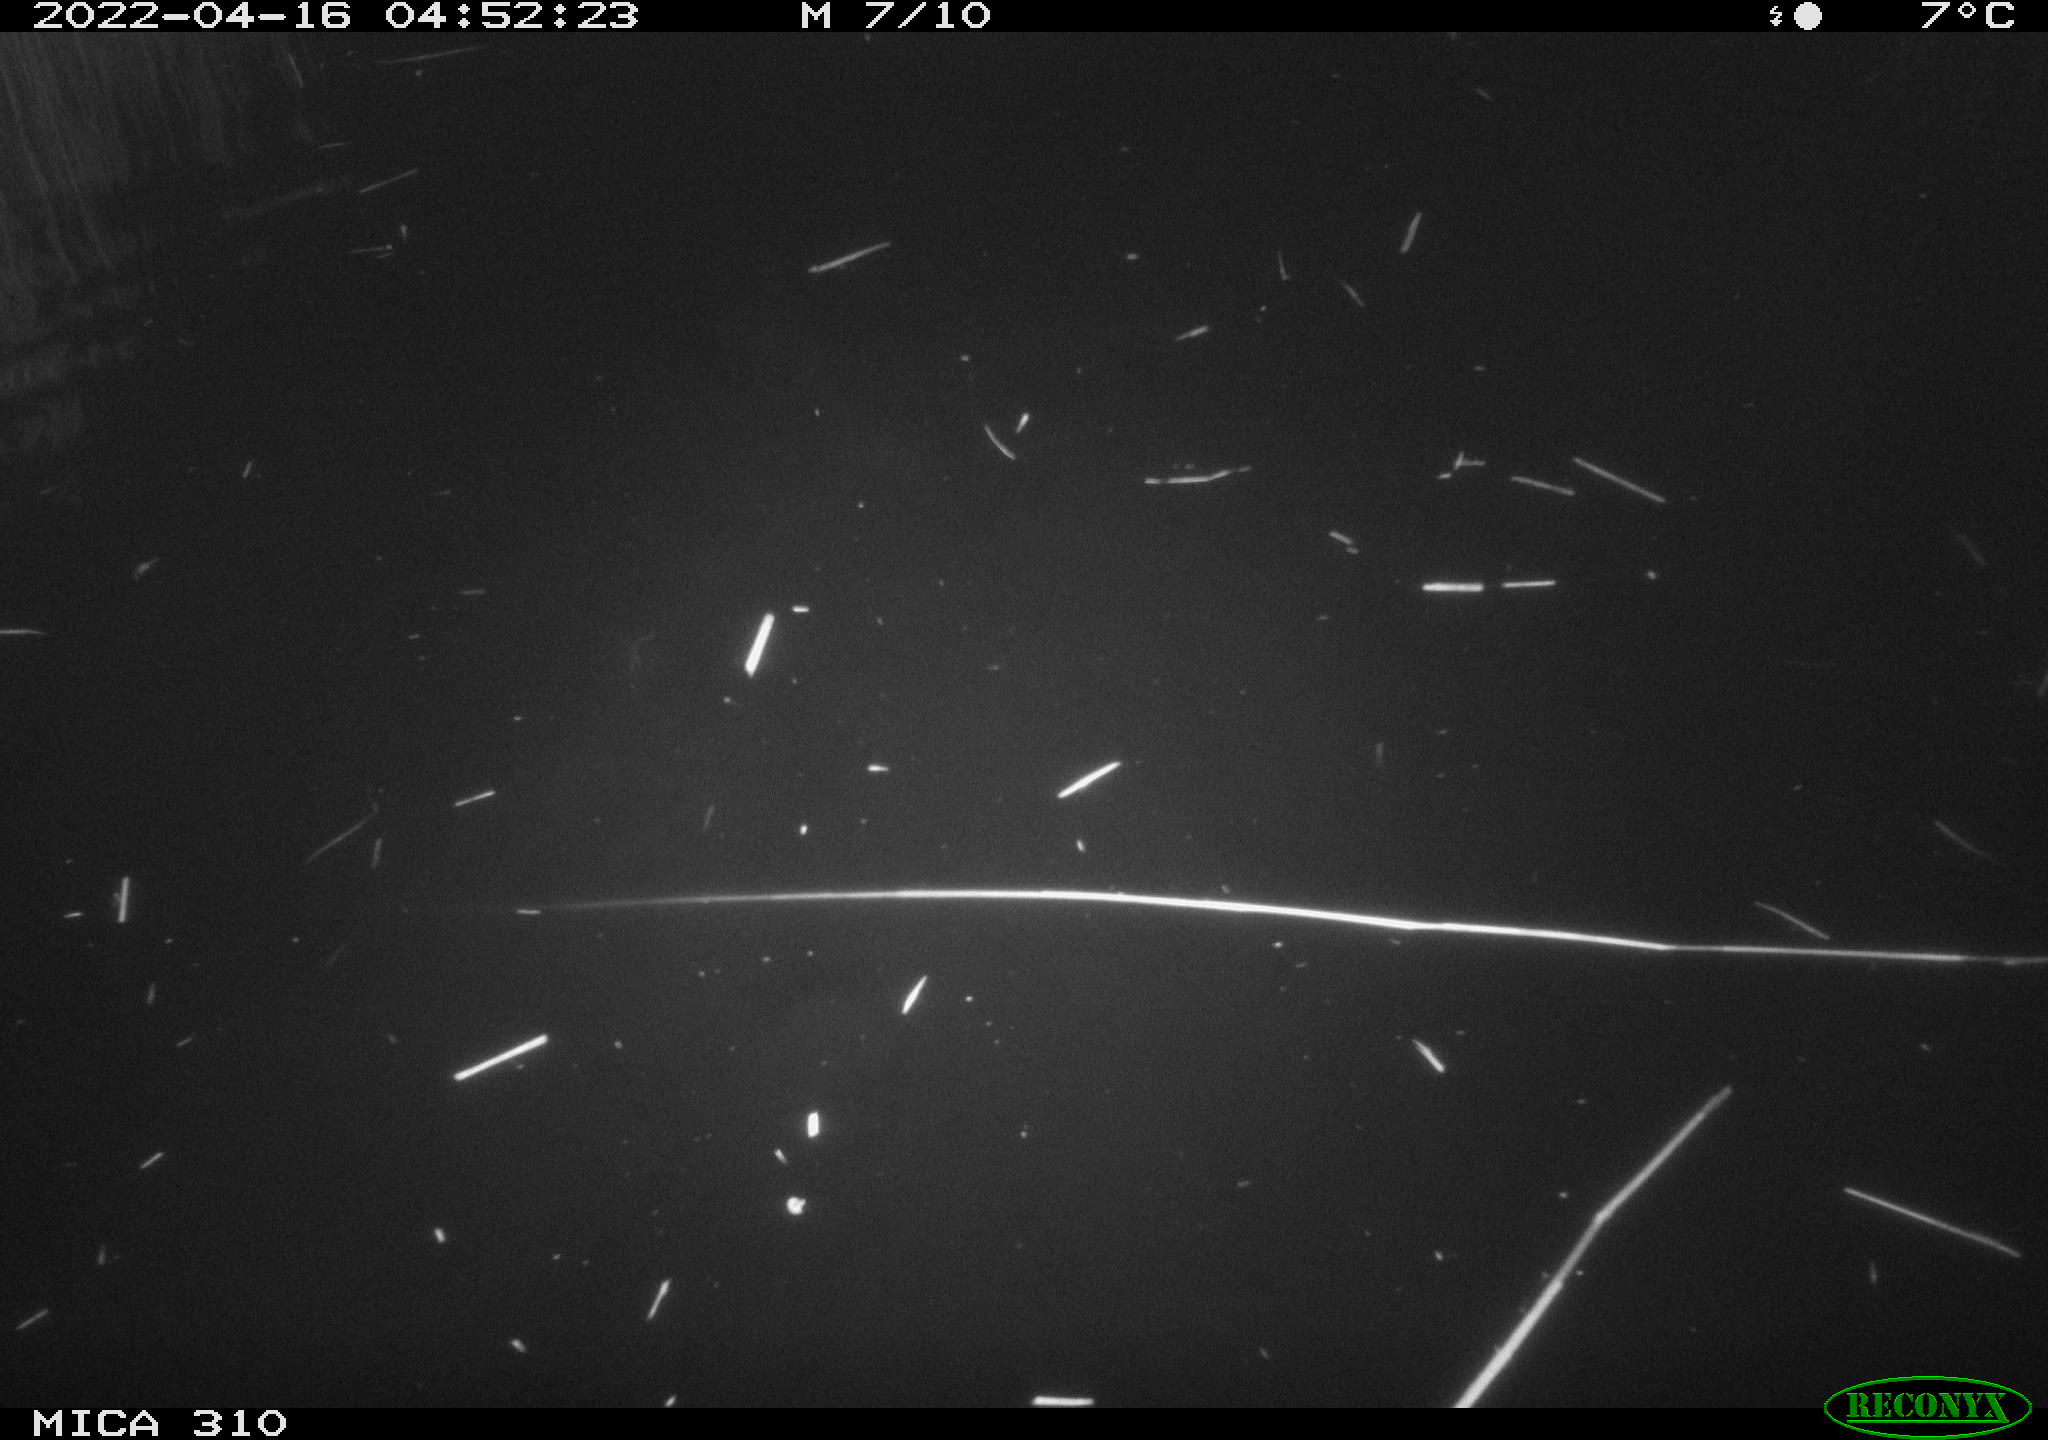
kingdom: Animalia
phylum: Chordata
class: Aves
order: Anseriformes
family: Anatidae
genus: Anas
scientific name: Anas platyrhynchos
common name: Mallard
